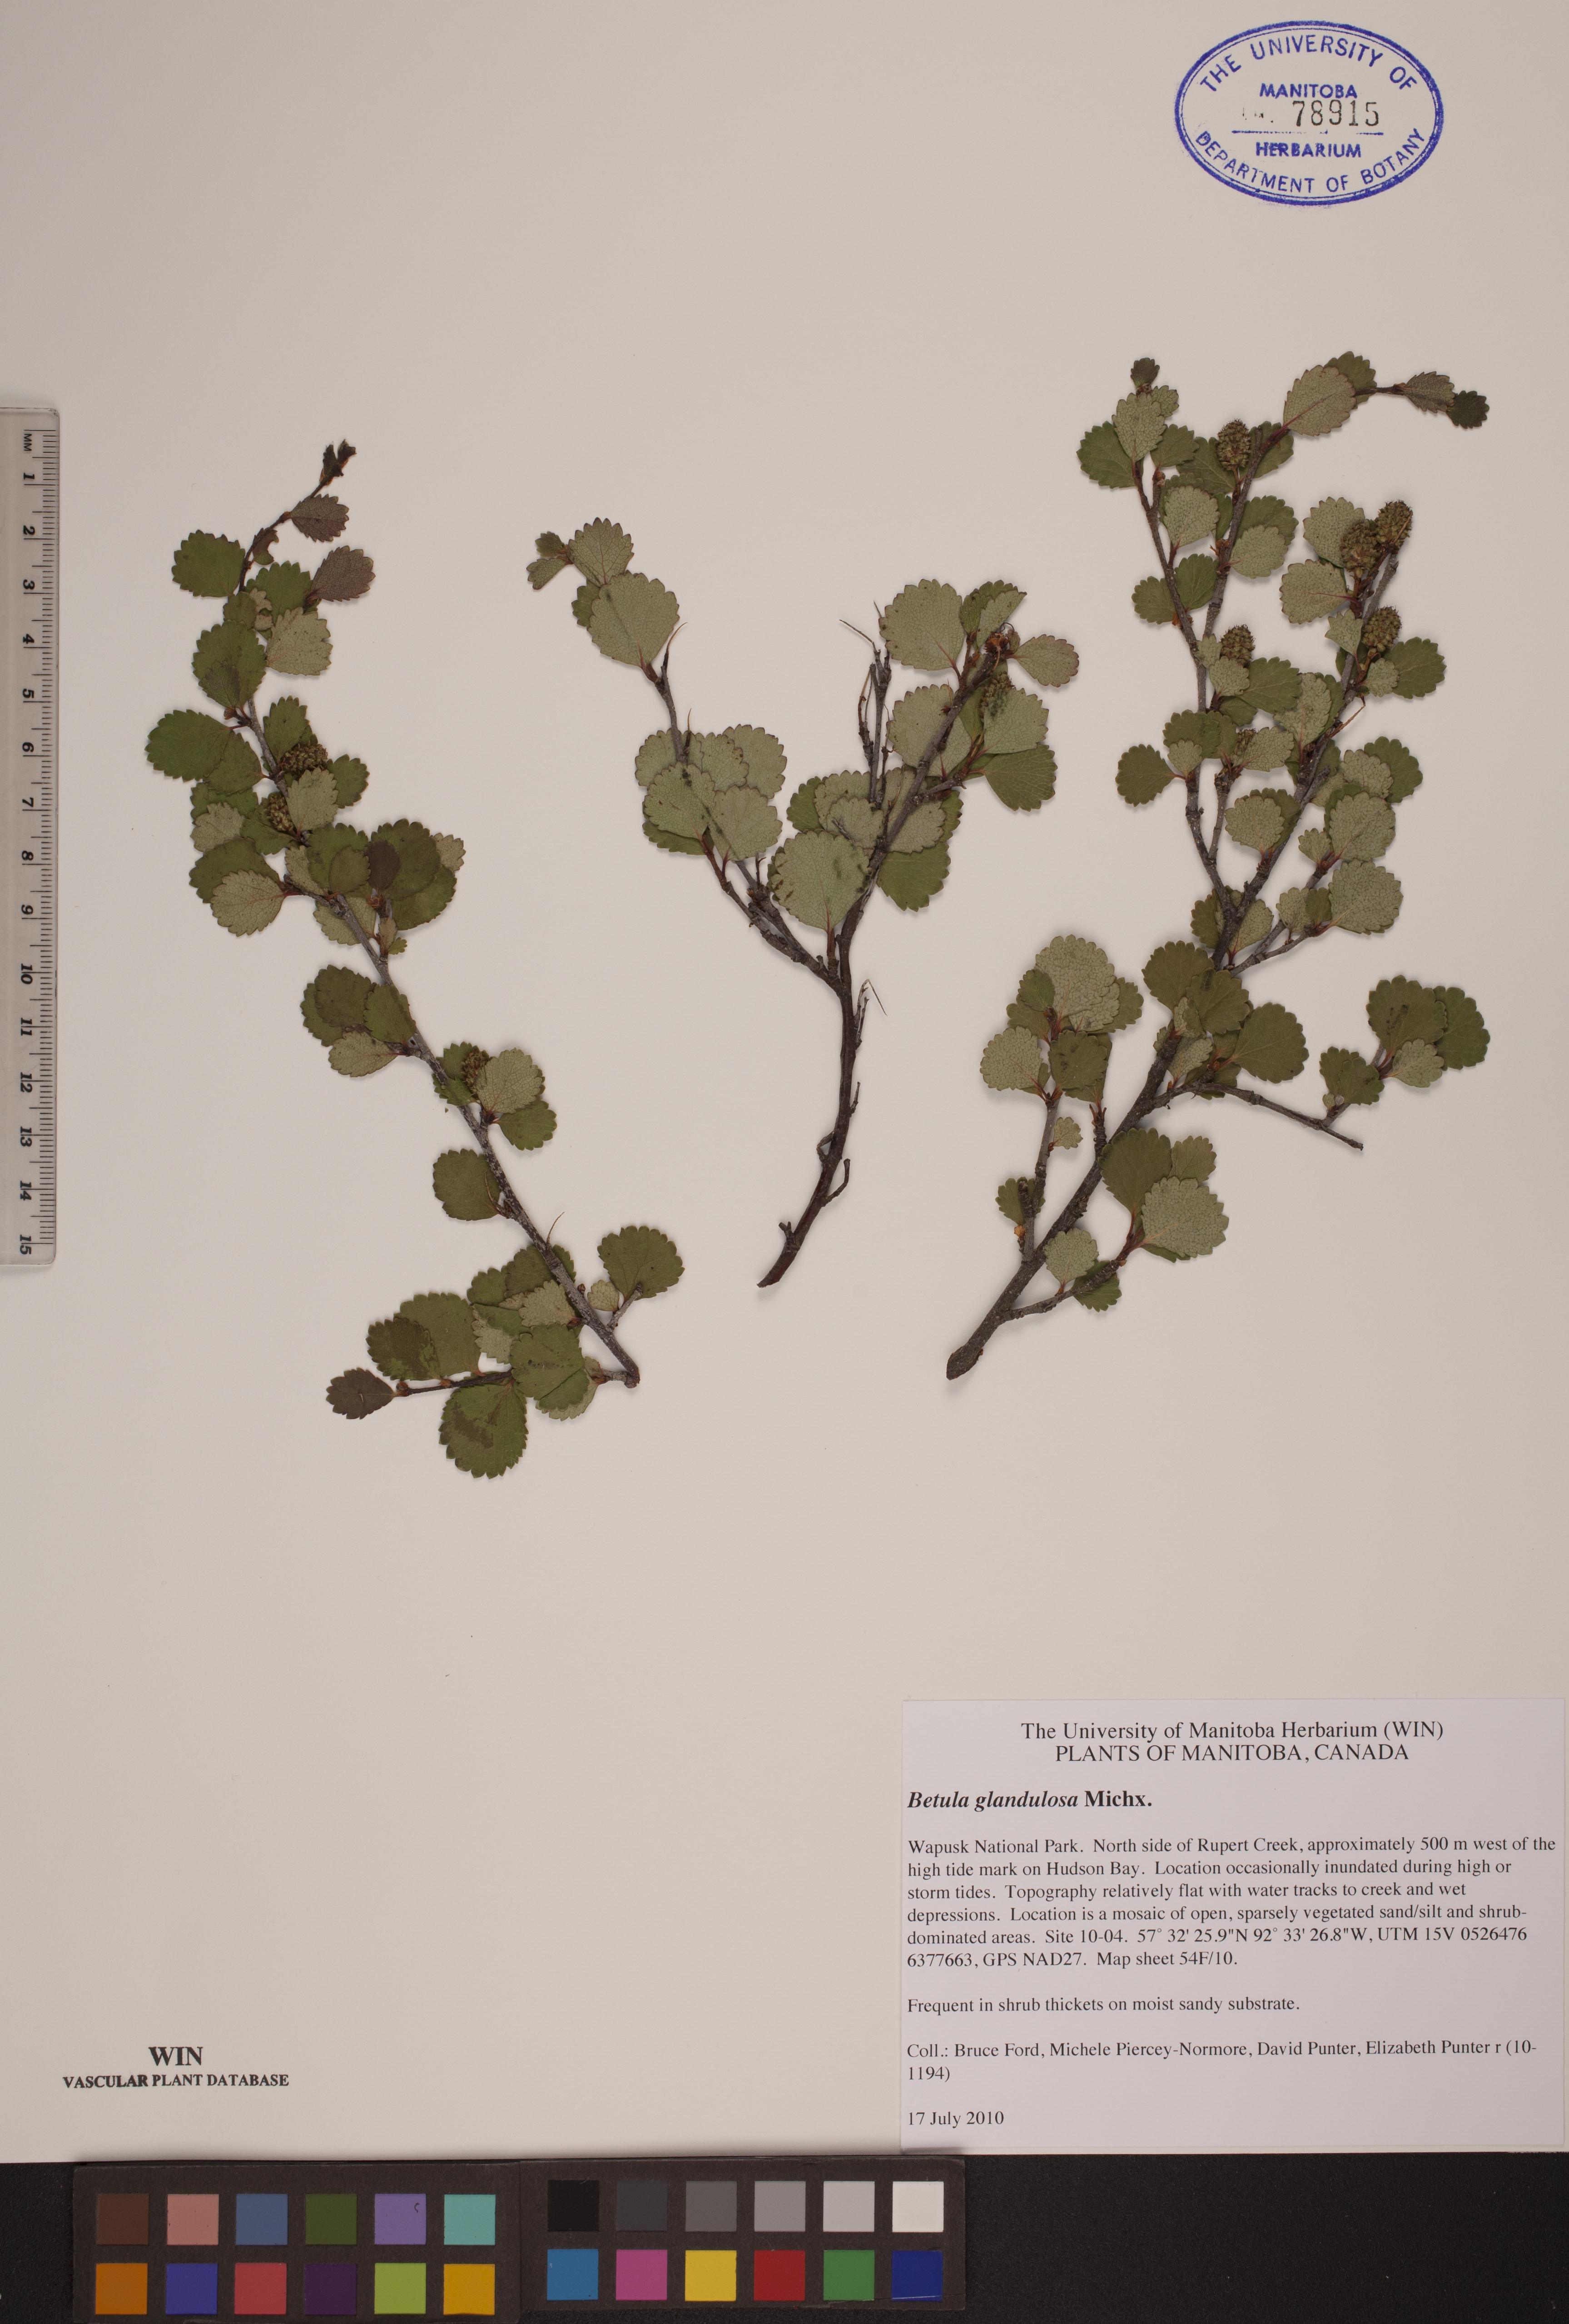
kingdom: Plantae
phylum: Tracheophyta
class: Magnoliopsida
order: Fagales
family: Betulaceae
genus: Betula
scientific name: Betula glandulosa
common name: Dwarf birch
